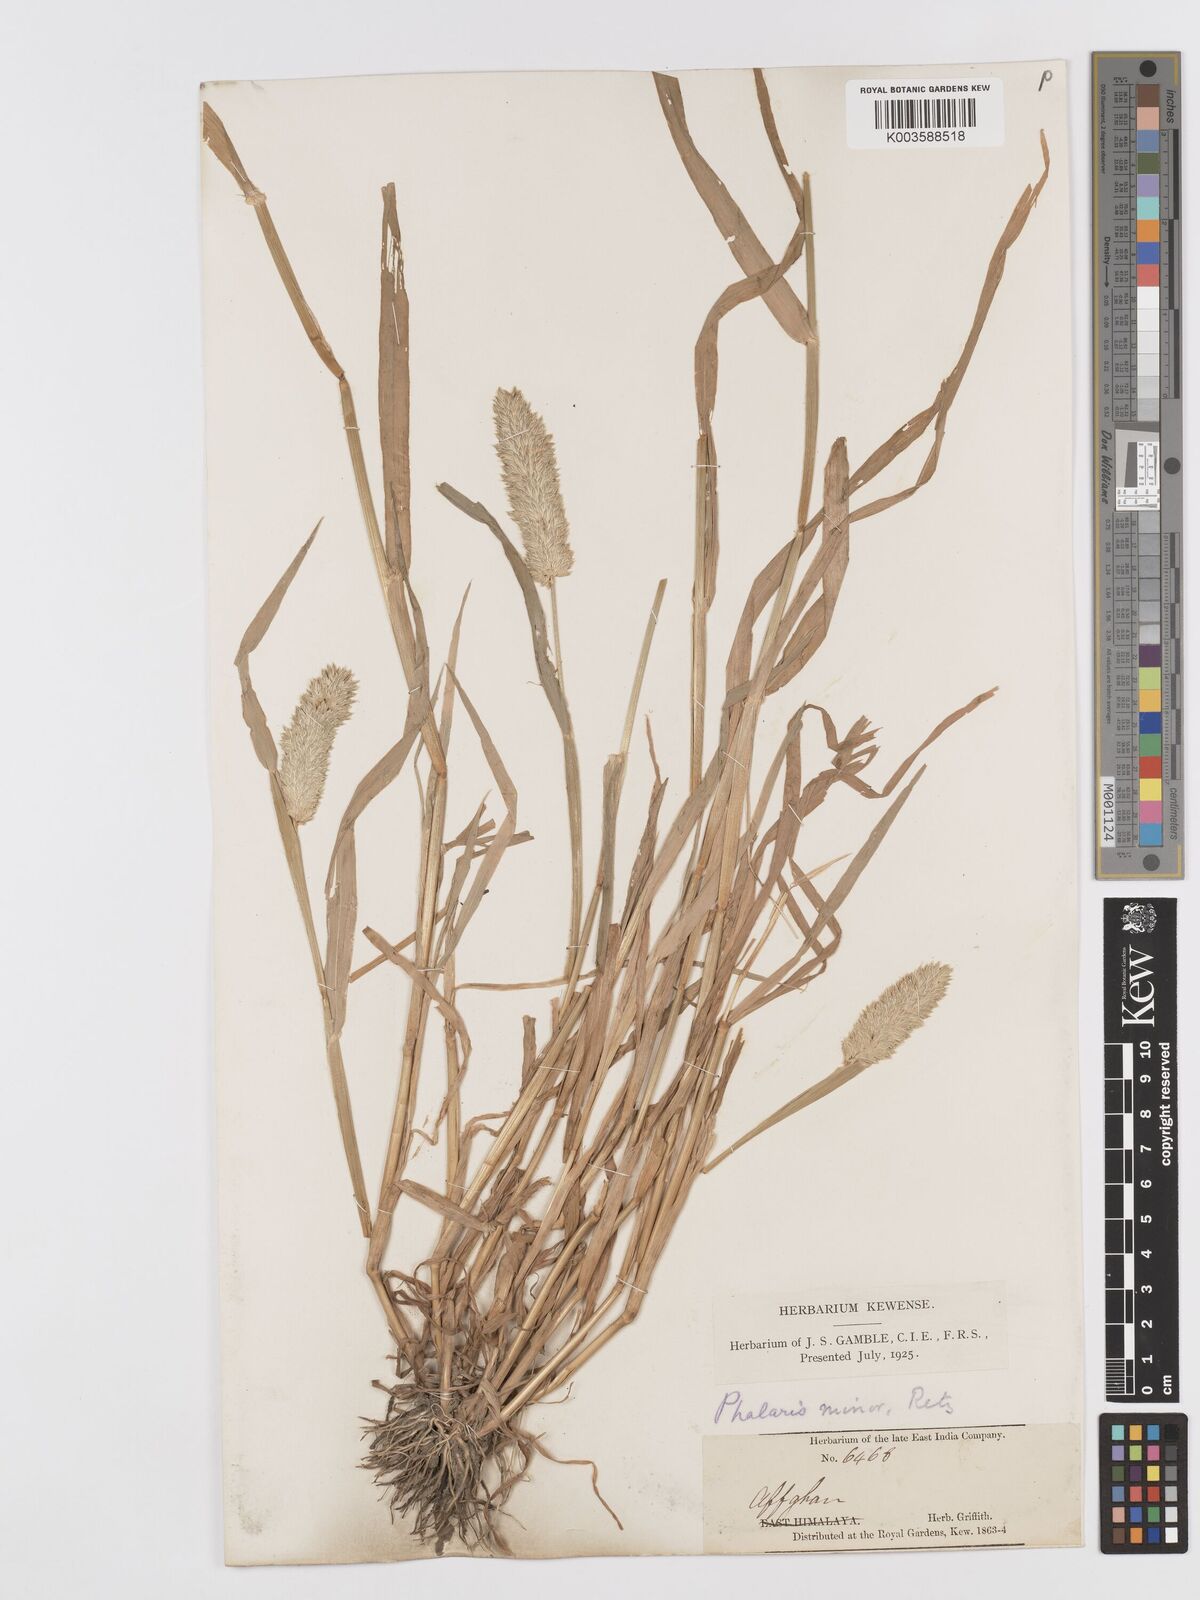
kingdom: Plantae
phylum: Tracheophyta
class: Liliopsida
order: Poales
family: Poaceae
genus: Phalaris
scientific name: Phalaris minor
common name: Littleseed canarygrass
